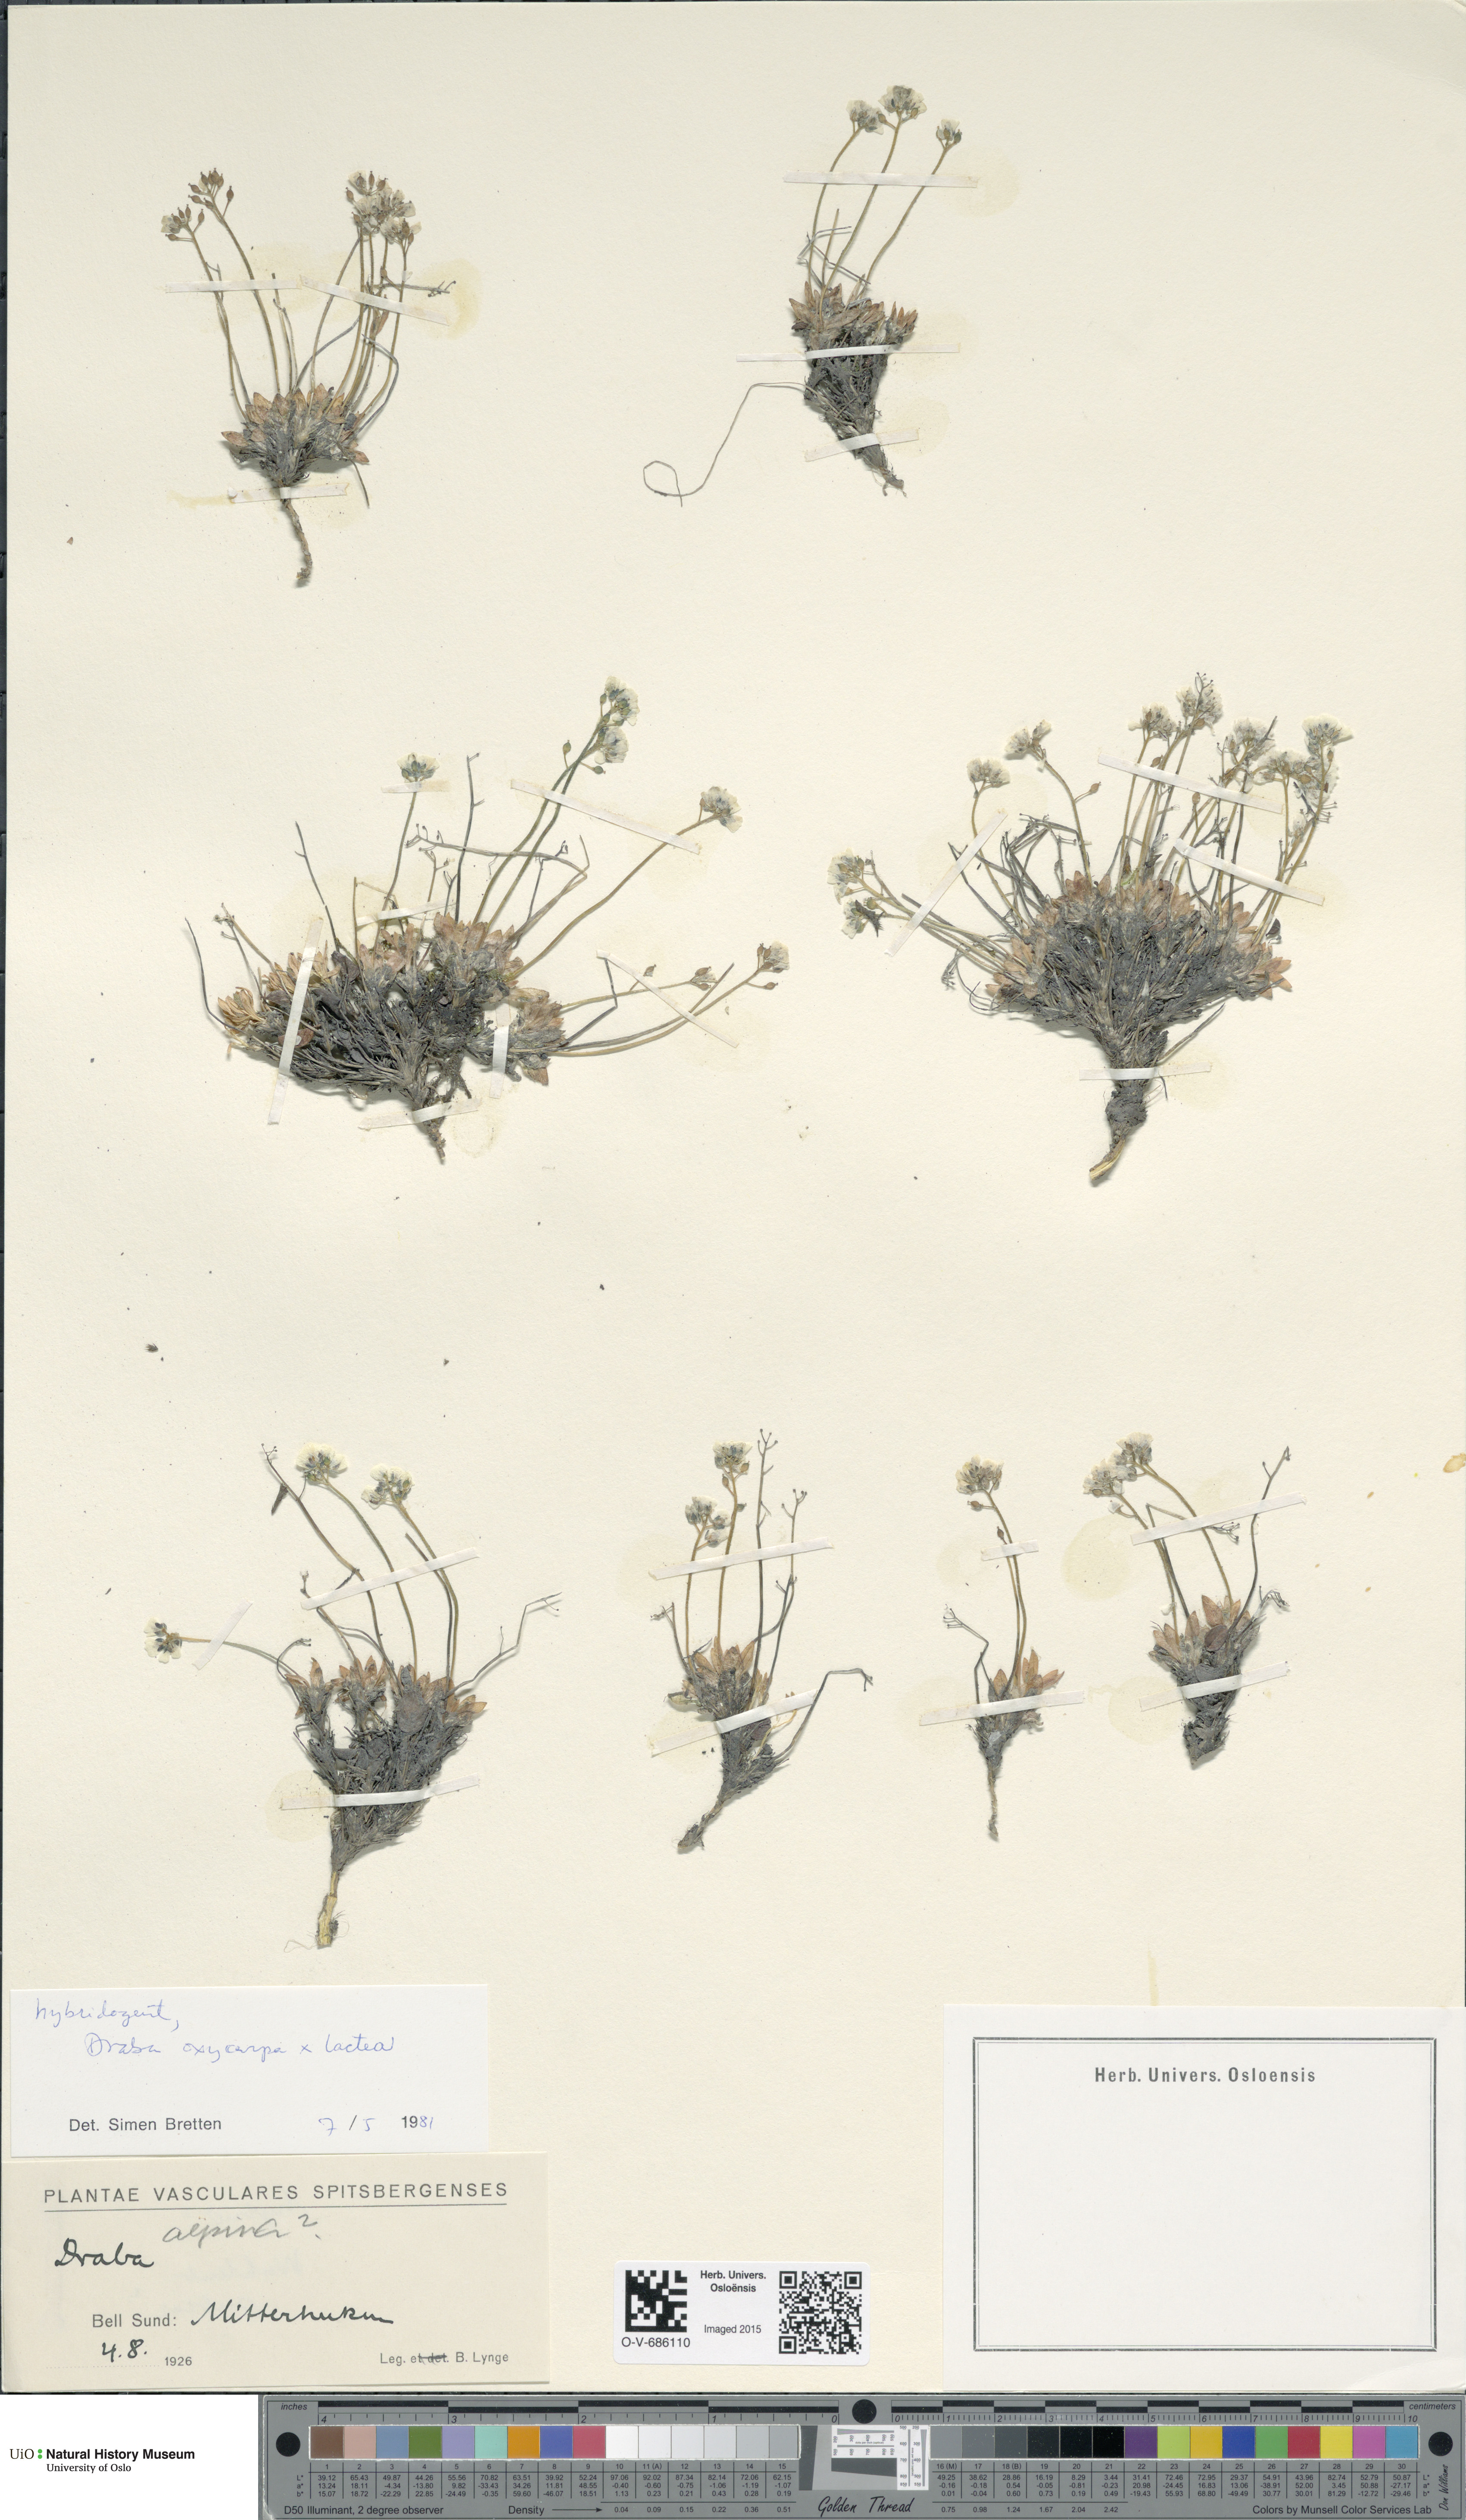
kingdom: Plantae
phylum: Tracheophyta
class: Magnoliopsida
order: Brassicales
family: Brassicaceae
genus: Draba
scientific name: Draba
